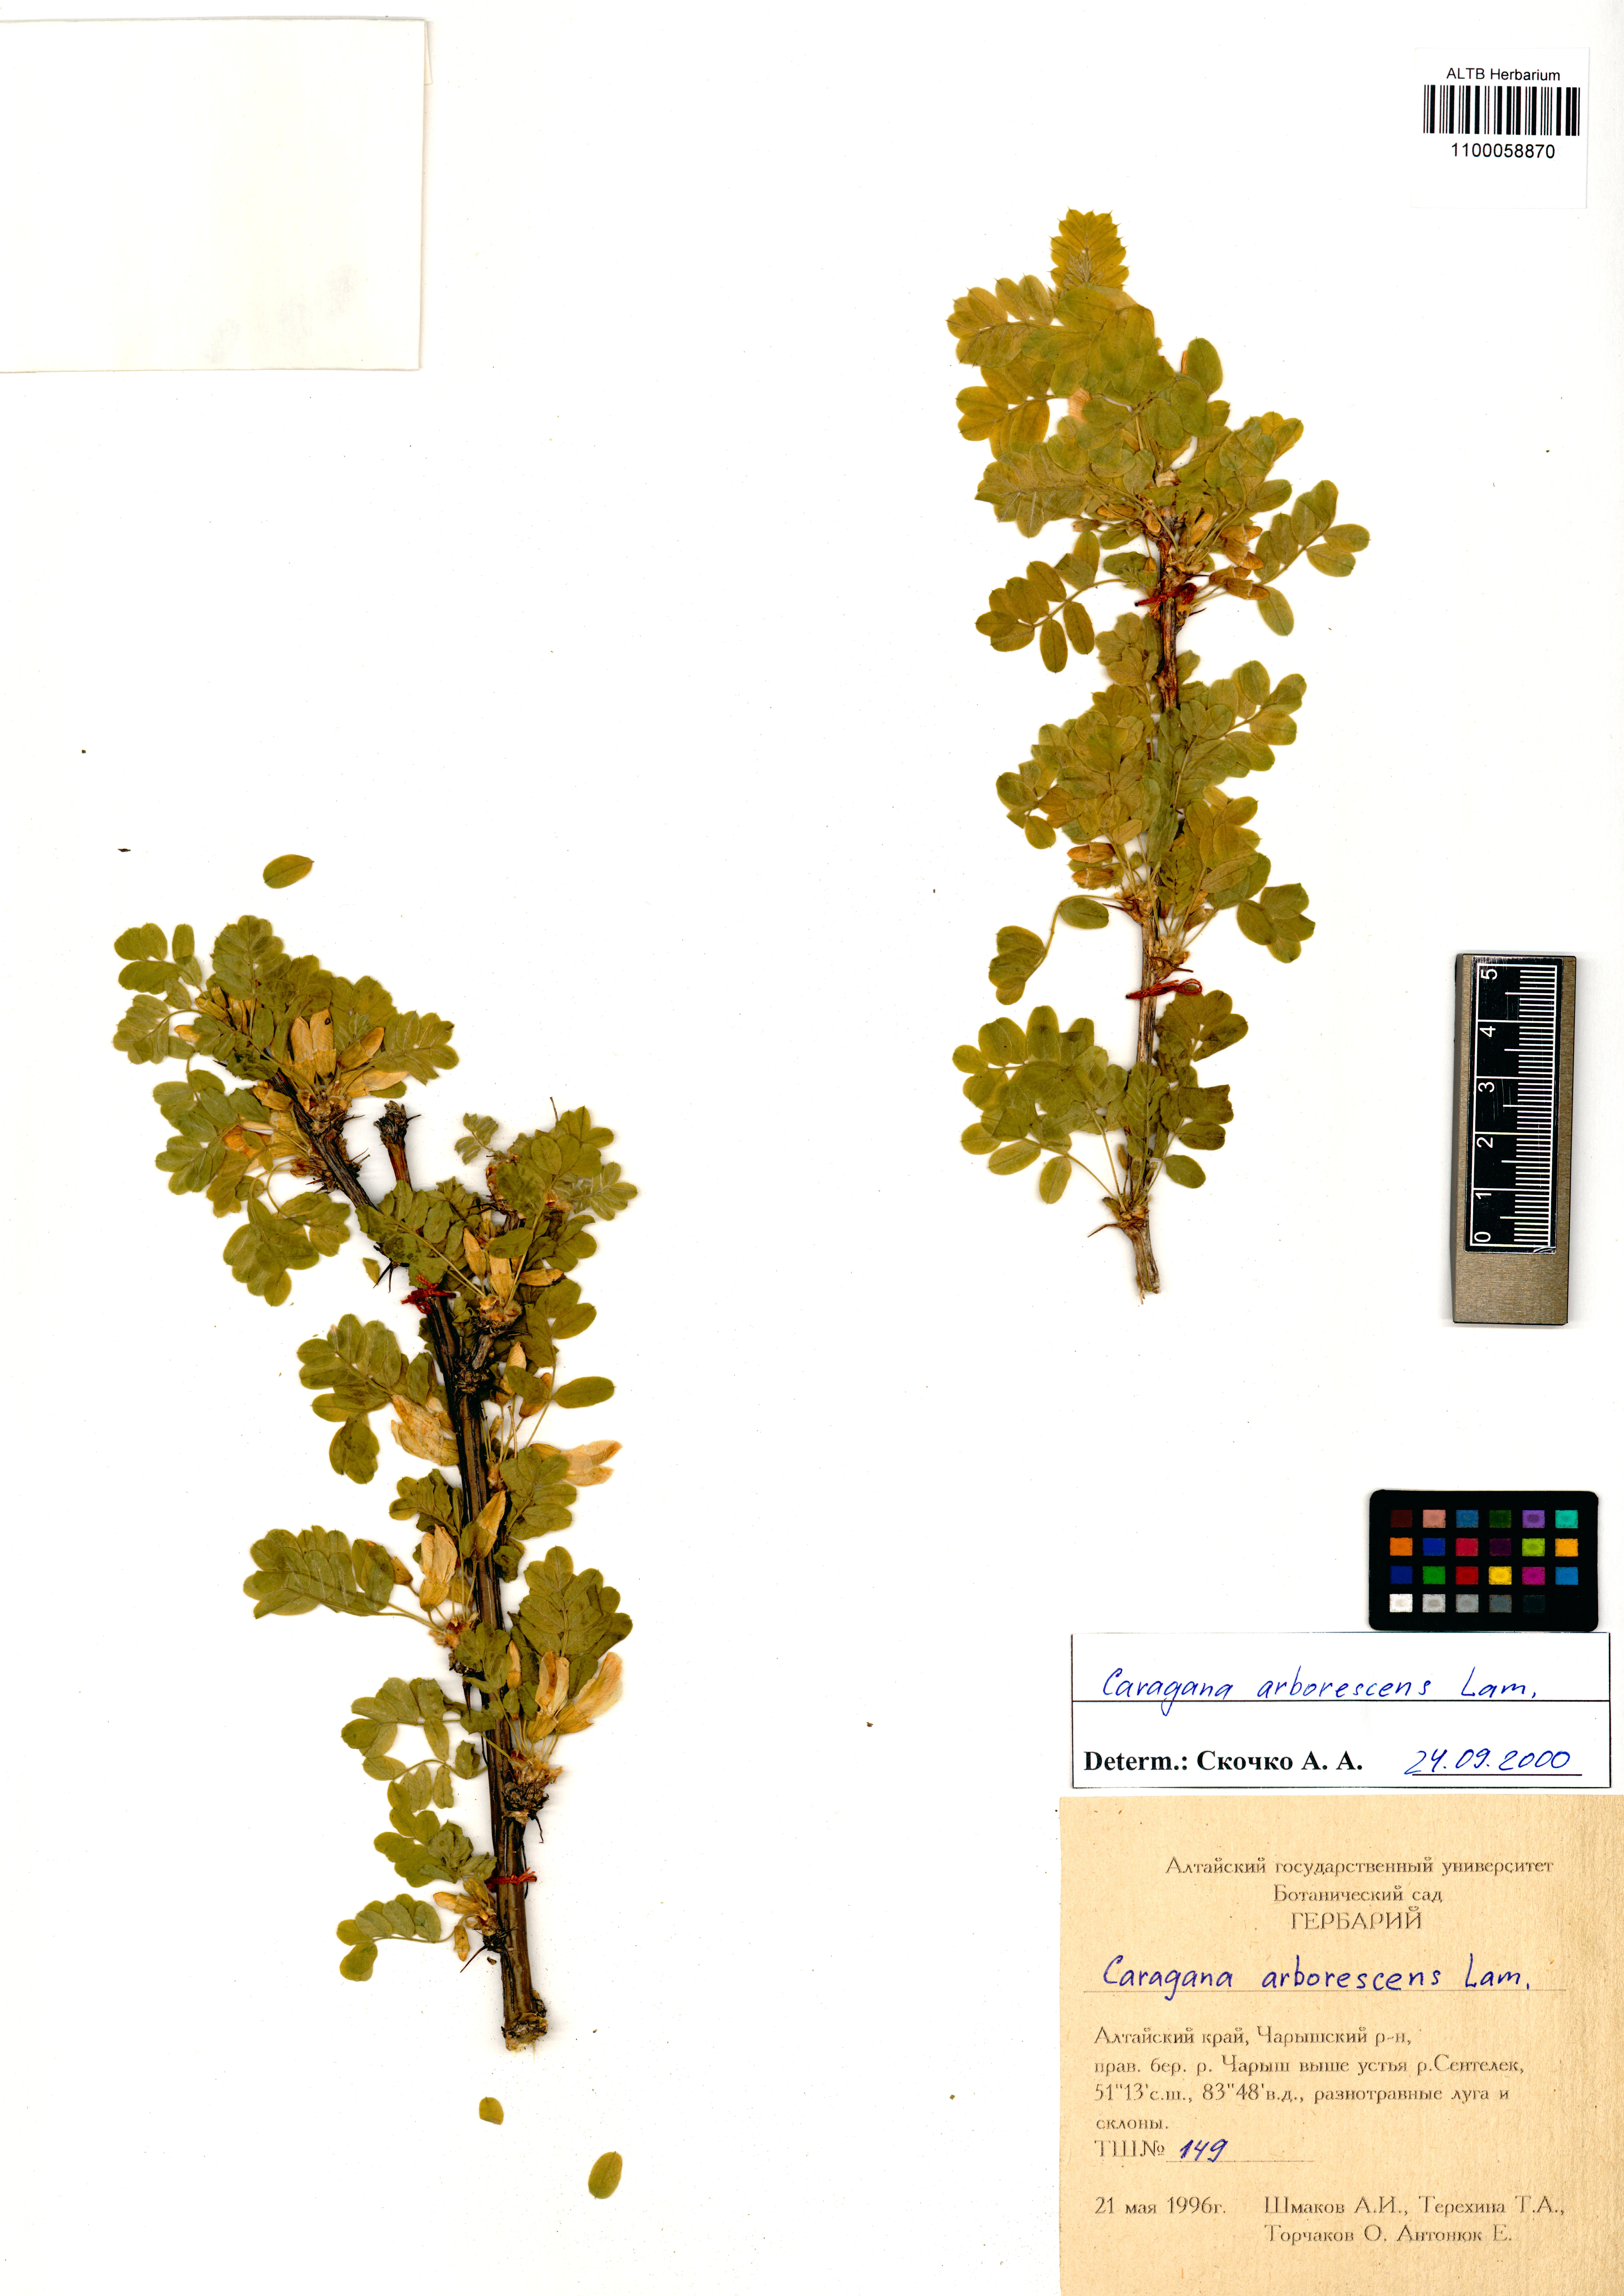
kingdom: Plantae
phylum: Tracheophyta
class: Magnoliopsida
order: Fabales
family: Fabaceae
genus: Caragana
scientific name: Caragana arborescens
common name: Siberian peashrub
